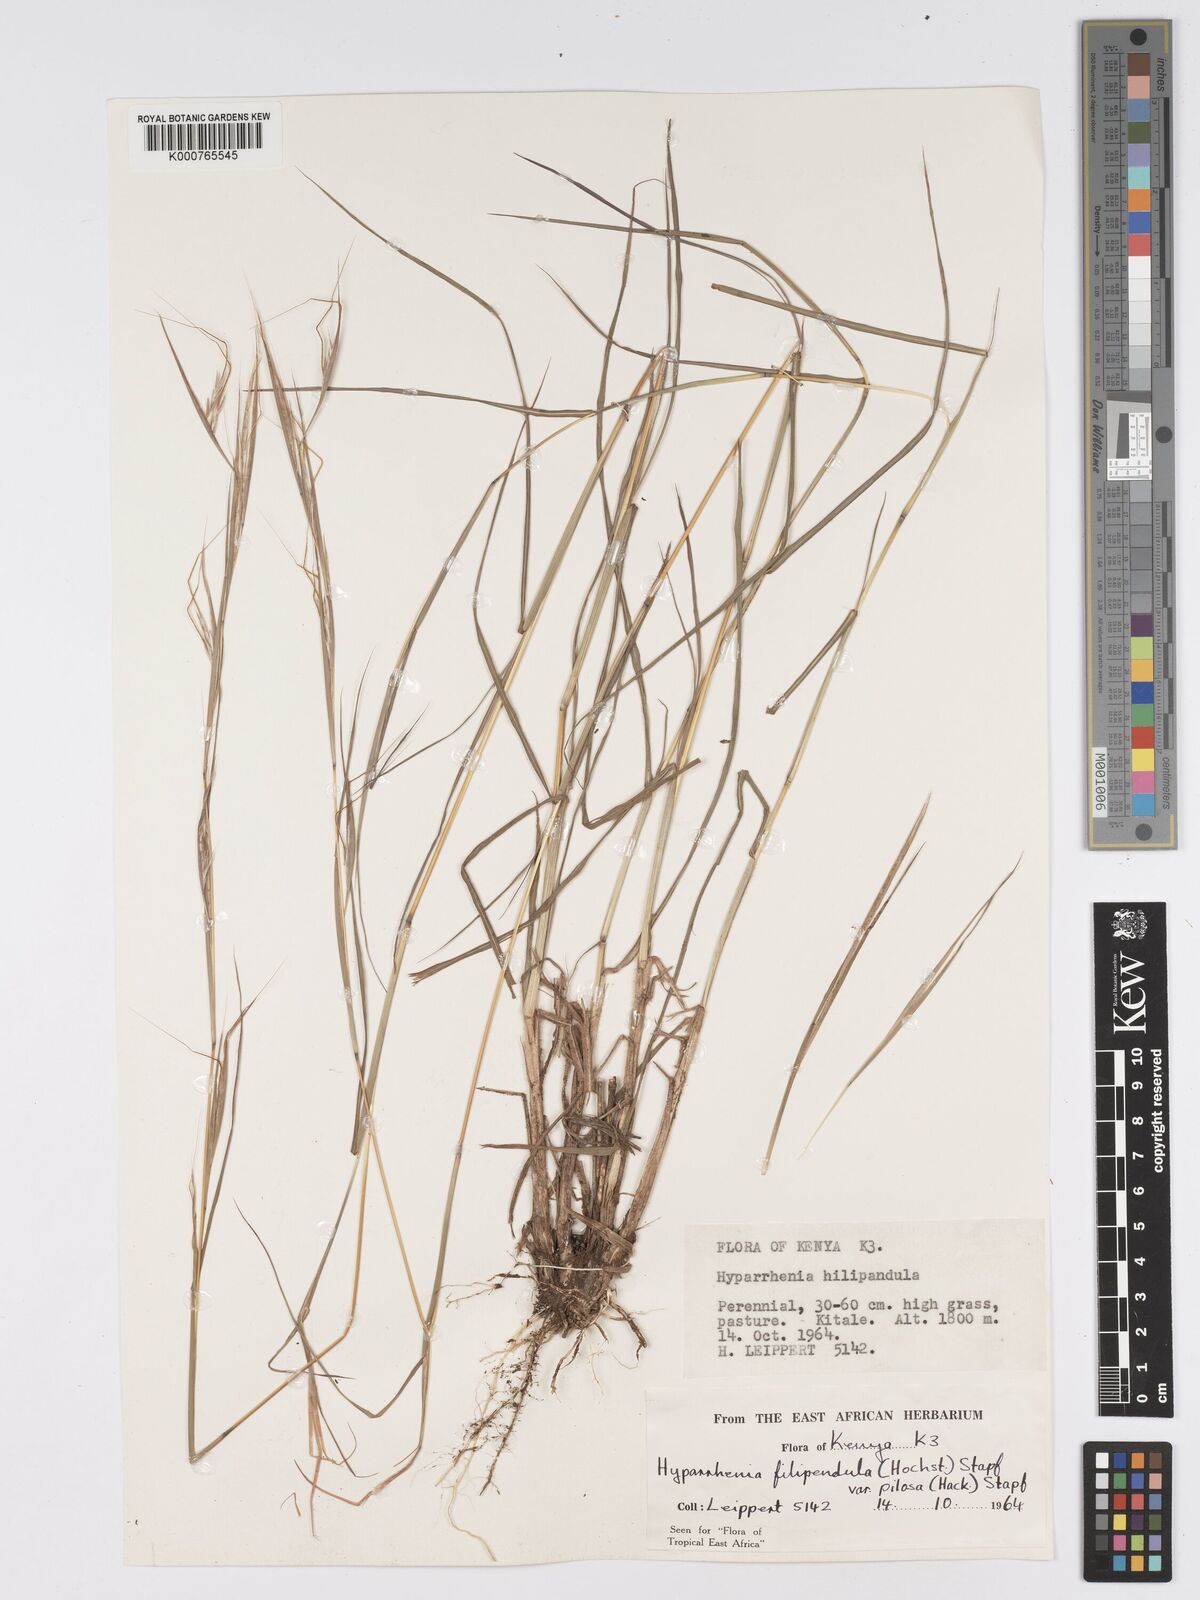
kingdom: Plantae
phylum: Tracheophyta
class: Liliopsida
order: Poales
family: Poaceae
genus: Hyparrhenia
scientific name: Hyparrhenia filipendula
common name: Tambookie grass
